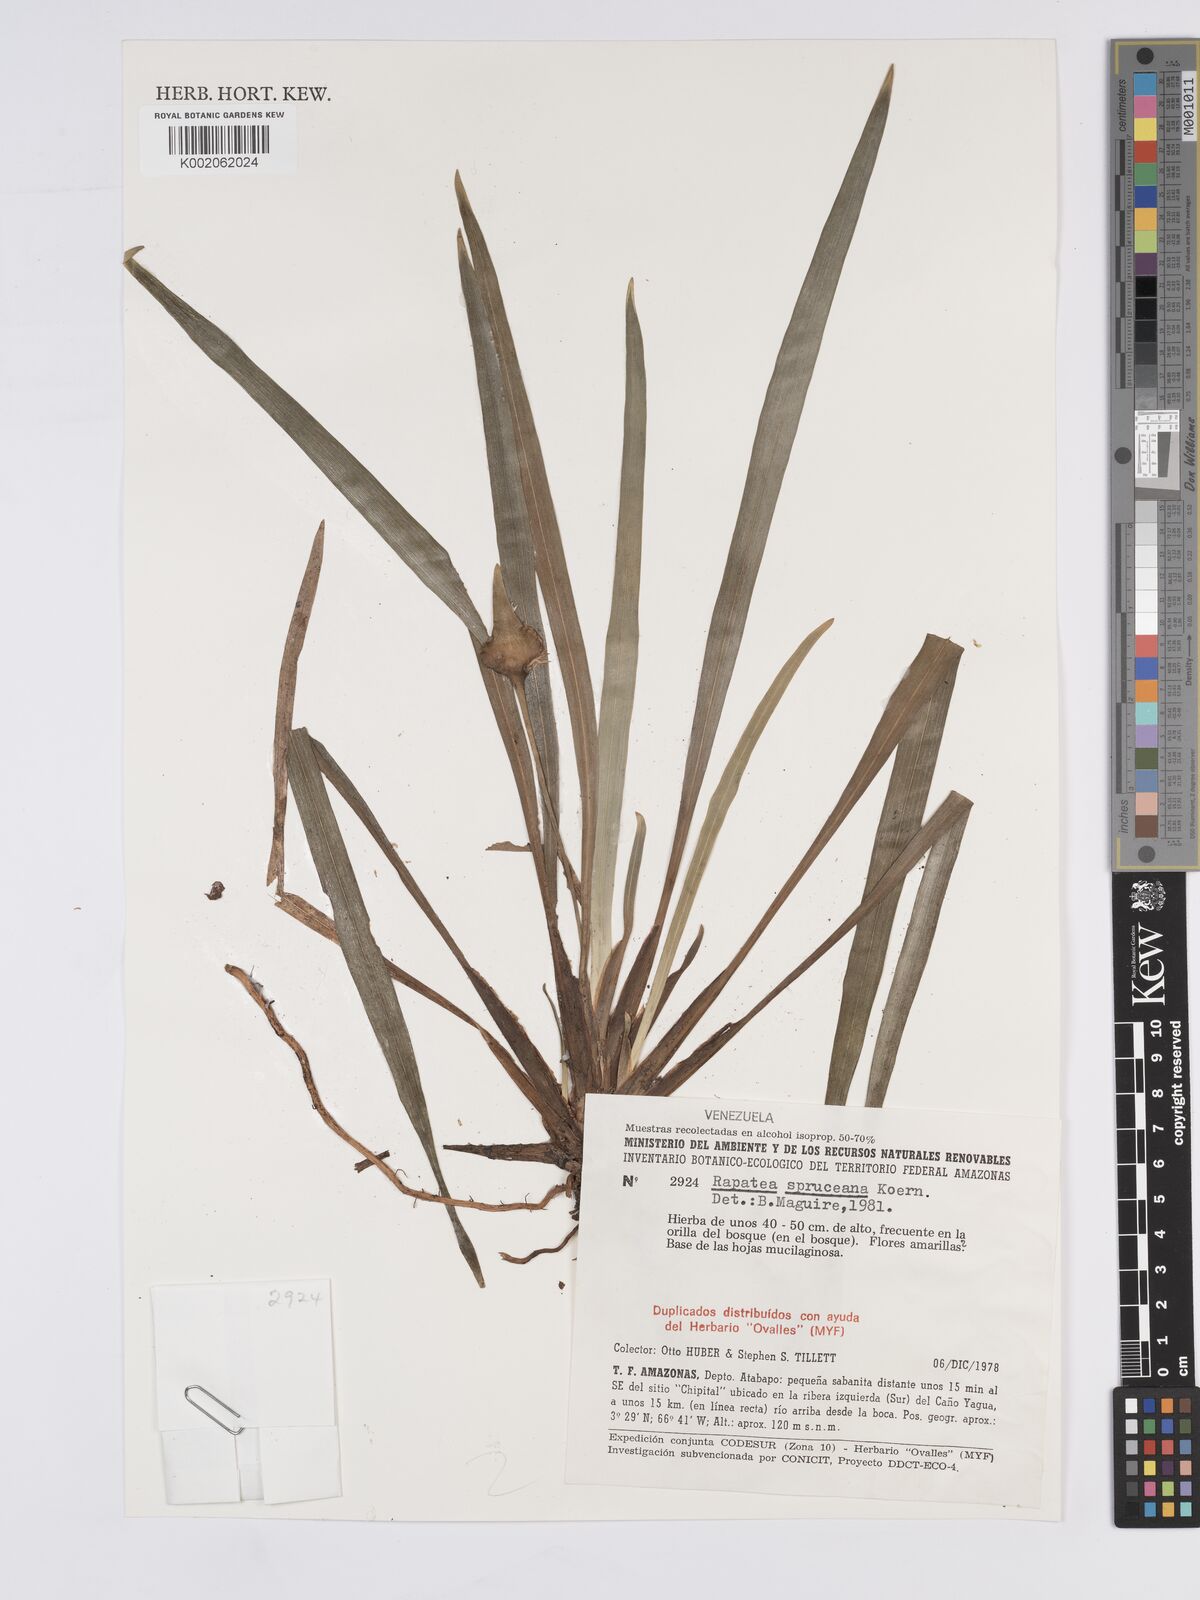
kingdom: Plantae
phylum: Tracheophyta
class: Liliopsida
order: Poales
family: Rapateaceae
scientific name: Rapateaceae
